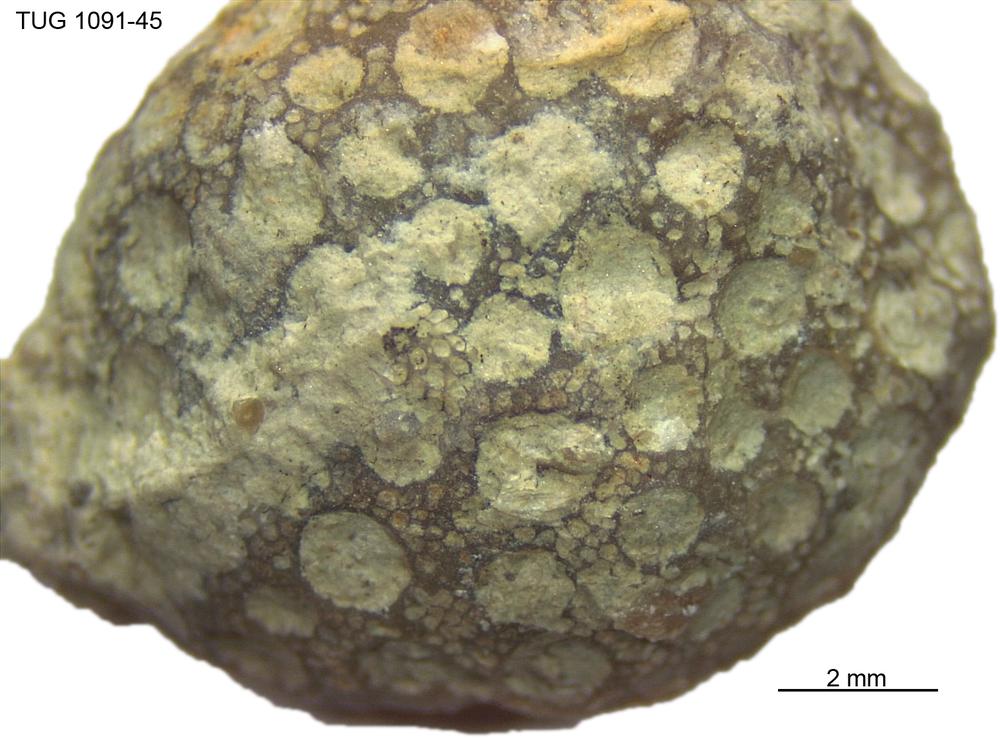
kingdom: Animalia
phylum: Xenacoelomorpha
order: Acoela
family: Proporidae
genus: Propora
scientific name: Propora
